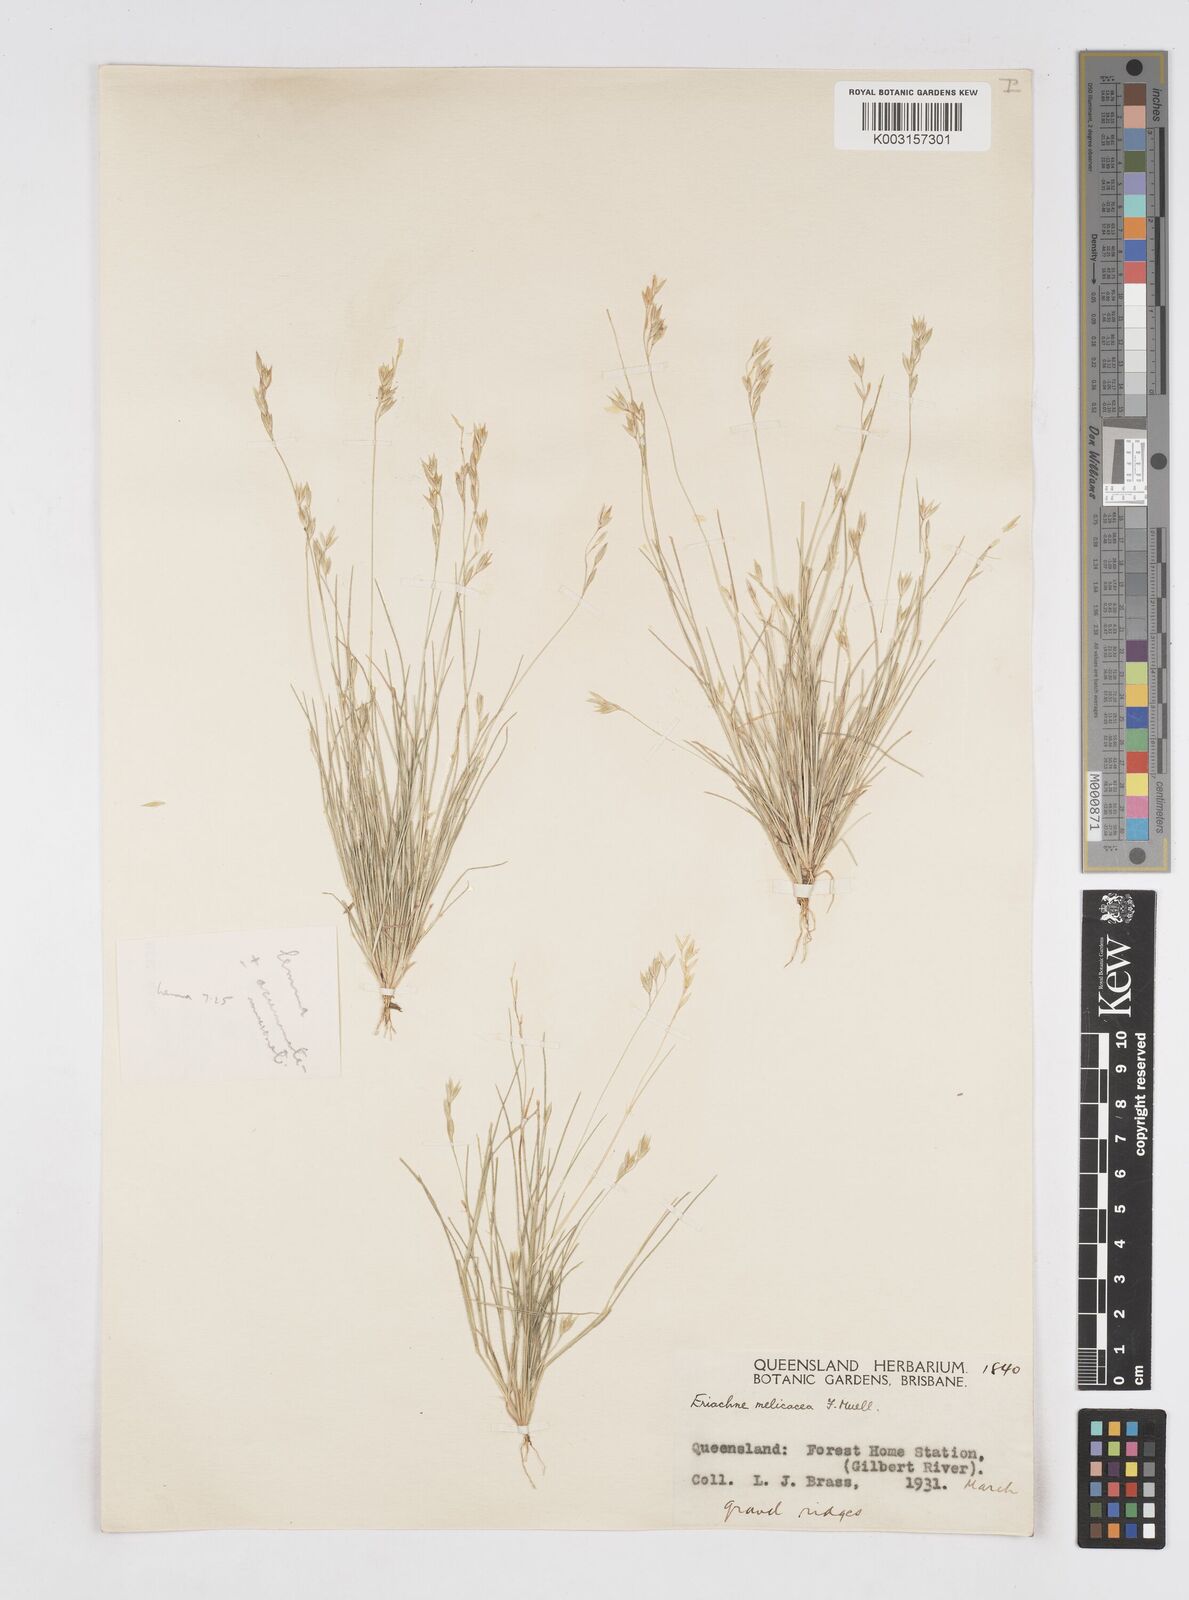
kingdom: Plantae
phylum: Tracheophyta
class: Liliopsida
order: Poales
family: Poaceae
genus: Eriachne
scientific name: Eriachne melicacea
